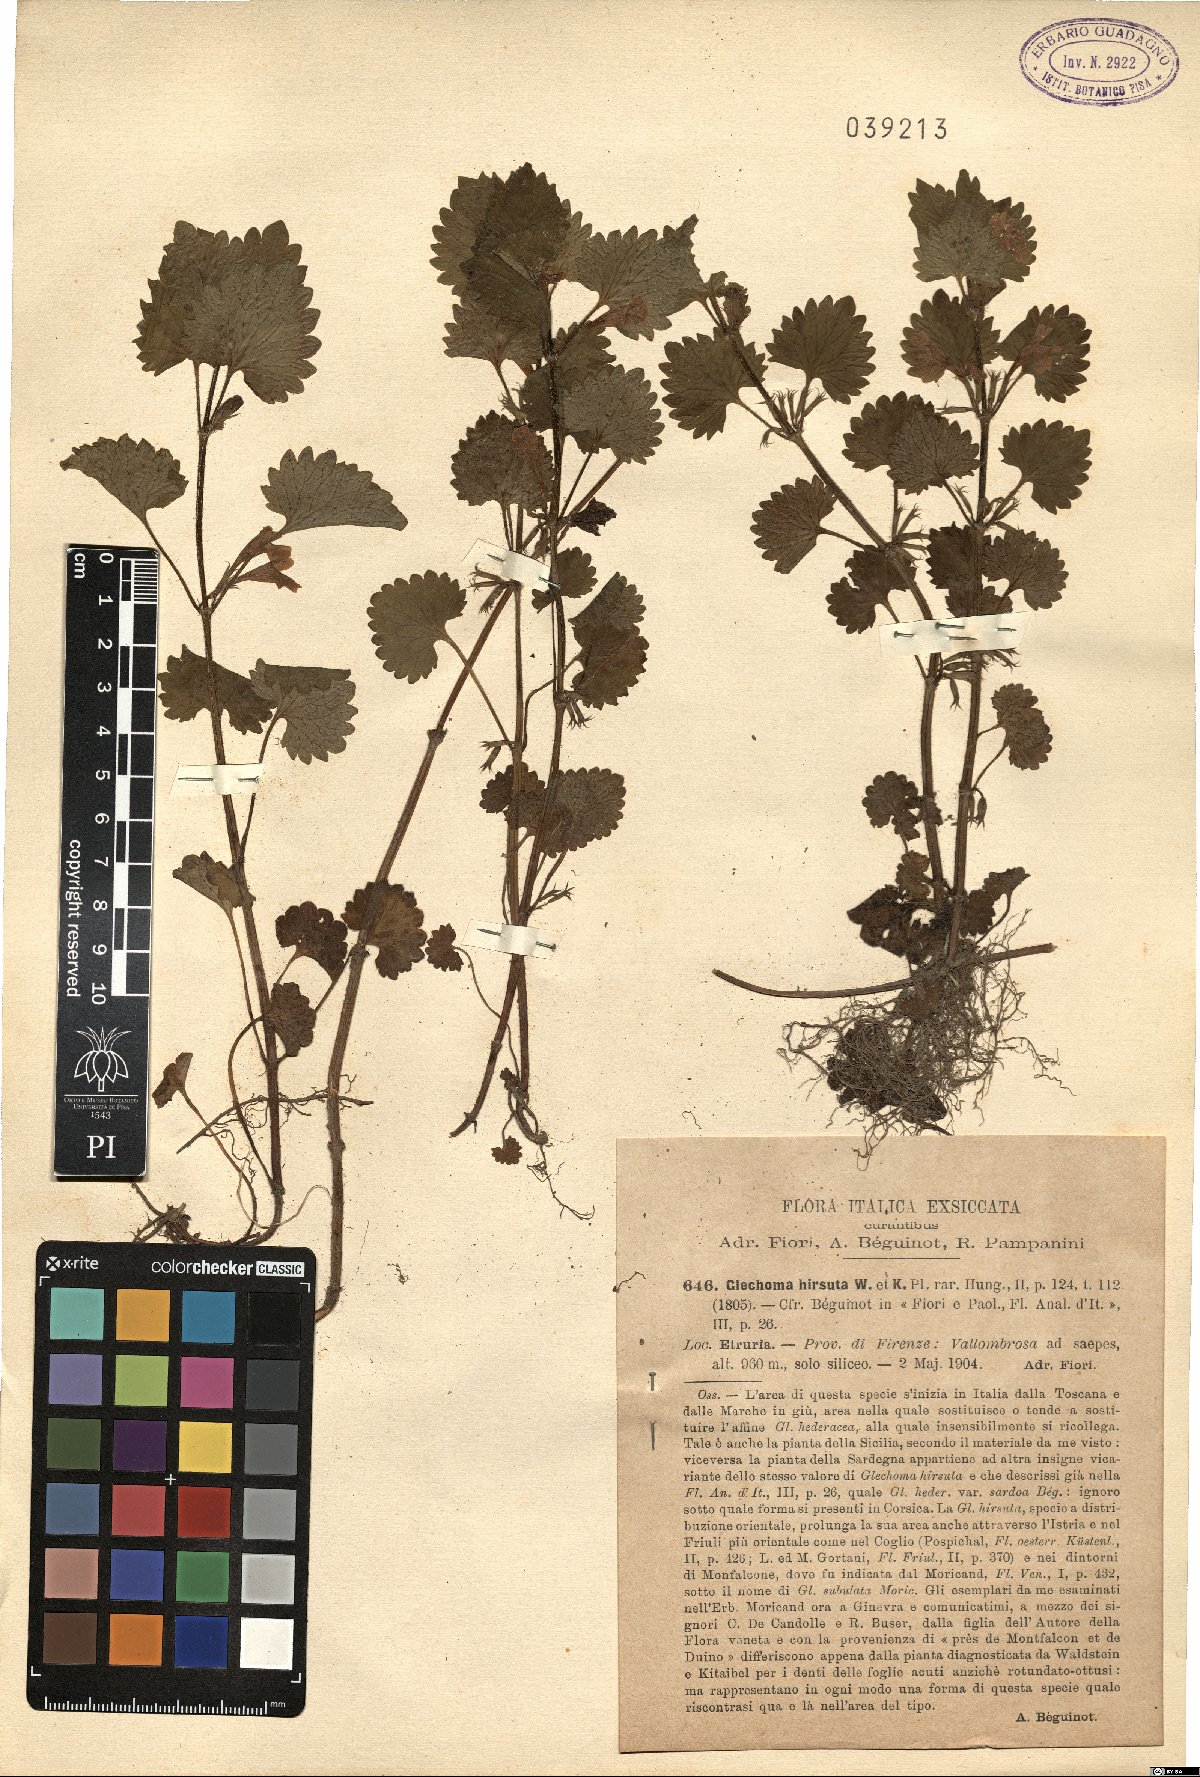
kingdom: Plantae
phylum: Tracheophyta
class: Magnoliopsida
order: Lamiales
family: Lamiaceae
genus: Glechoma
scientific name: Glechoma hirsuta
